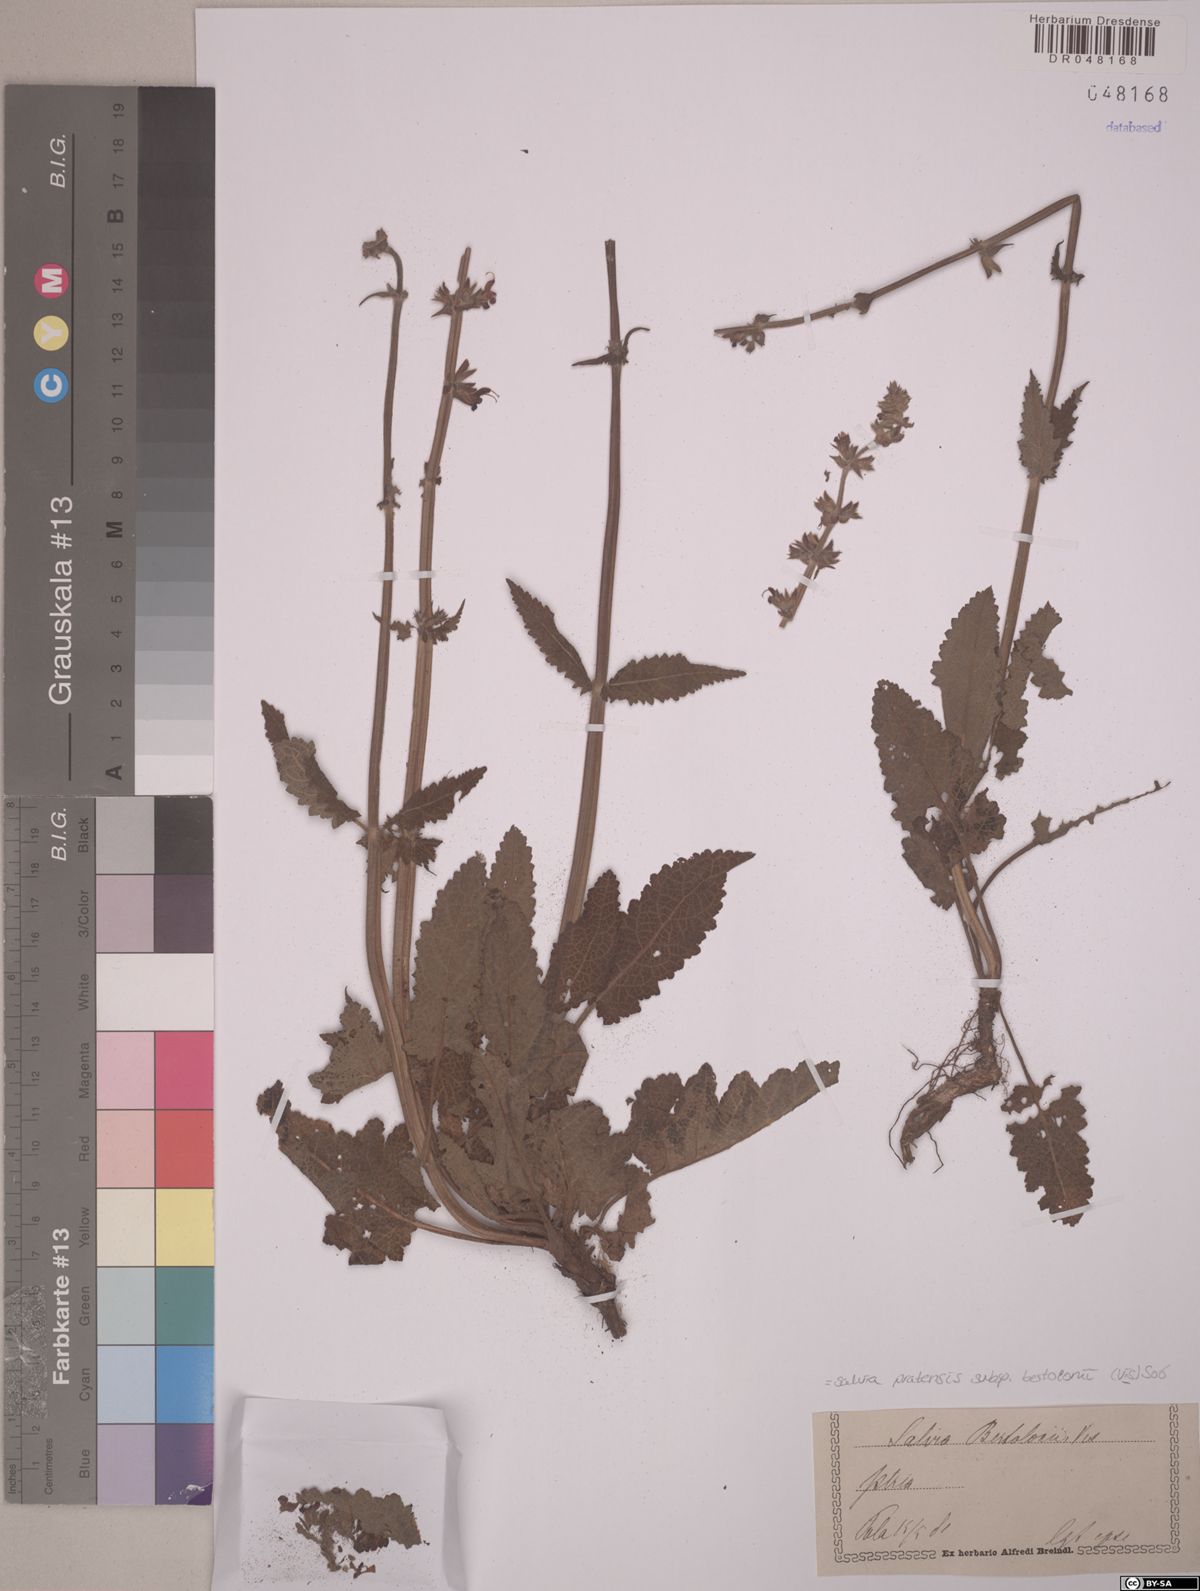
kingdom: Plantae
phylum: Tracheophyta
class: Magnoliopsida
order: Lamiales
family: Lamiaceae
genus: Salvia
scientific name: Salvia pratensis
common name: Meadow sage
